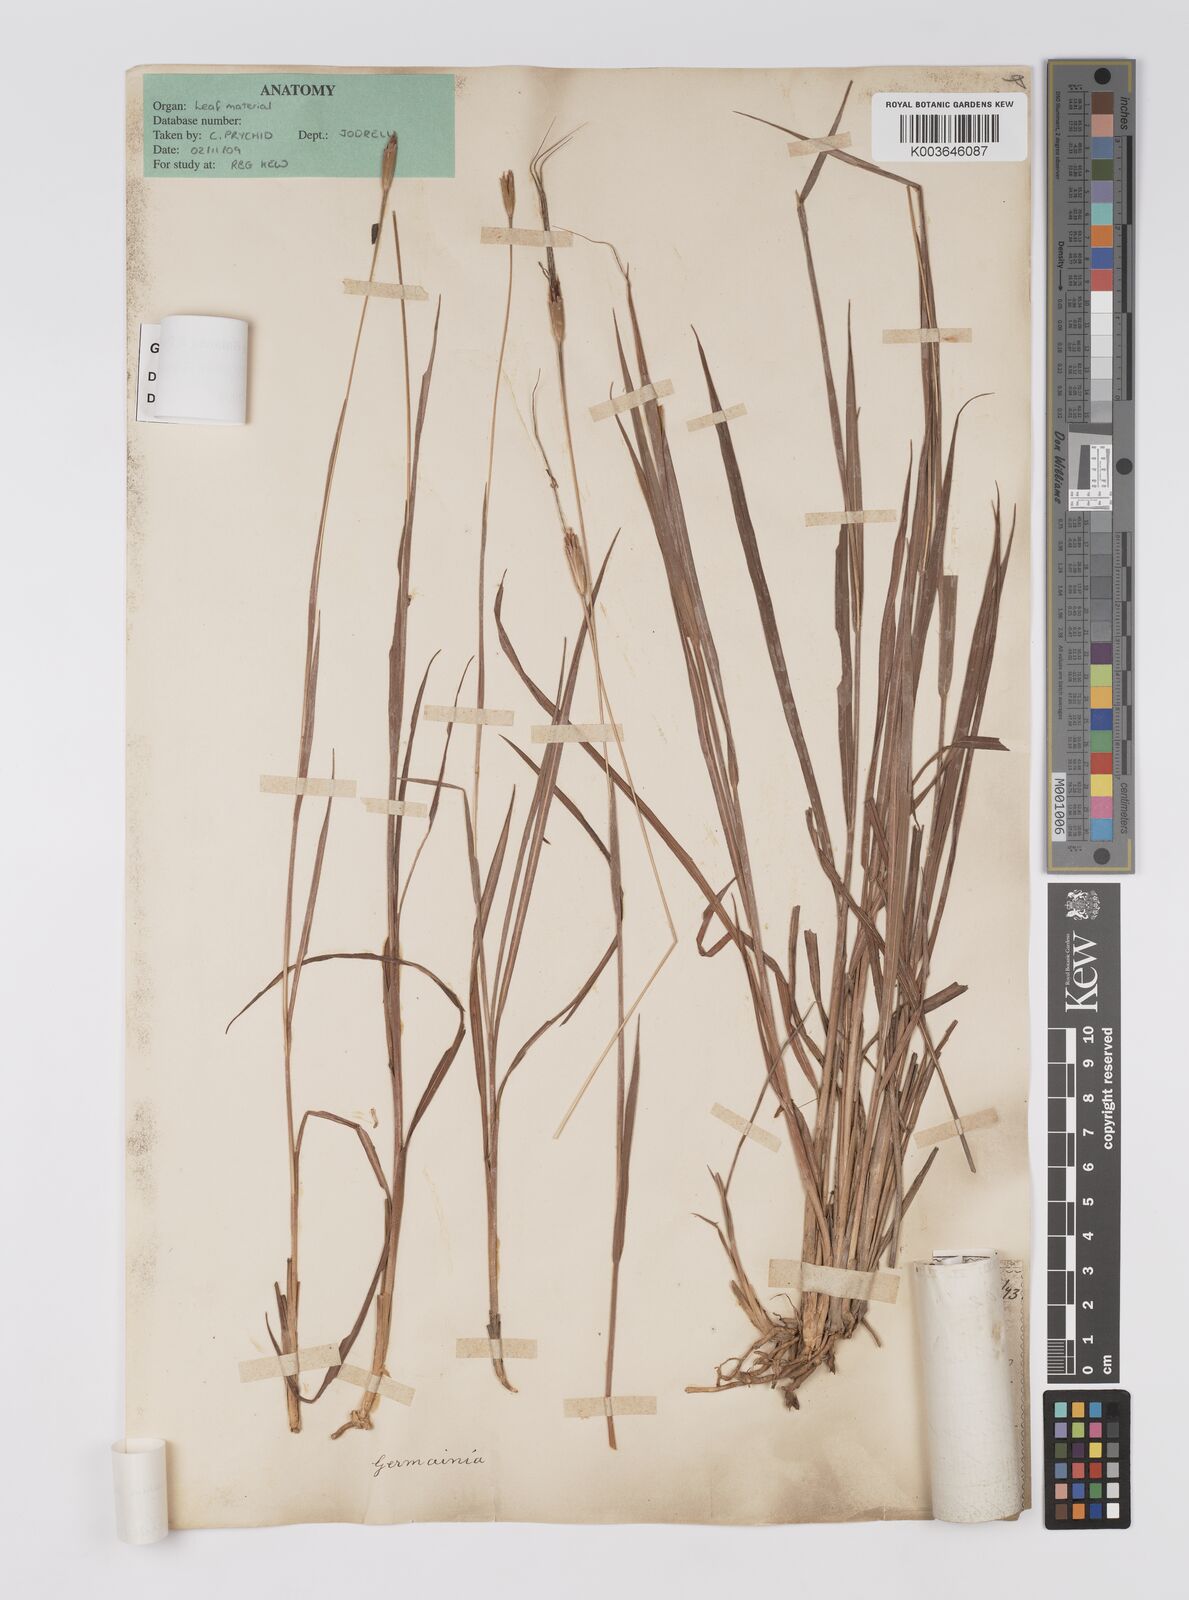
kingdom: Plantae
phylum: Tracheophyta
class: Liliopsida
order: Poales
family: Poaceae
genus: Germainia
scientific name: Germainia capitata
